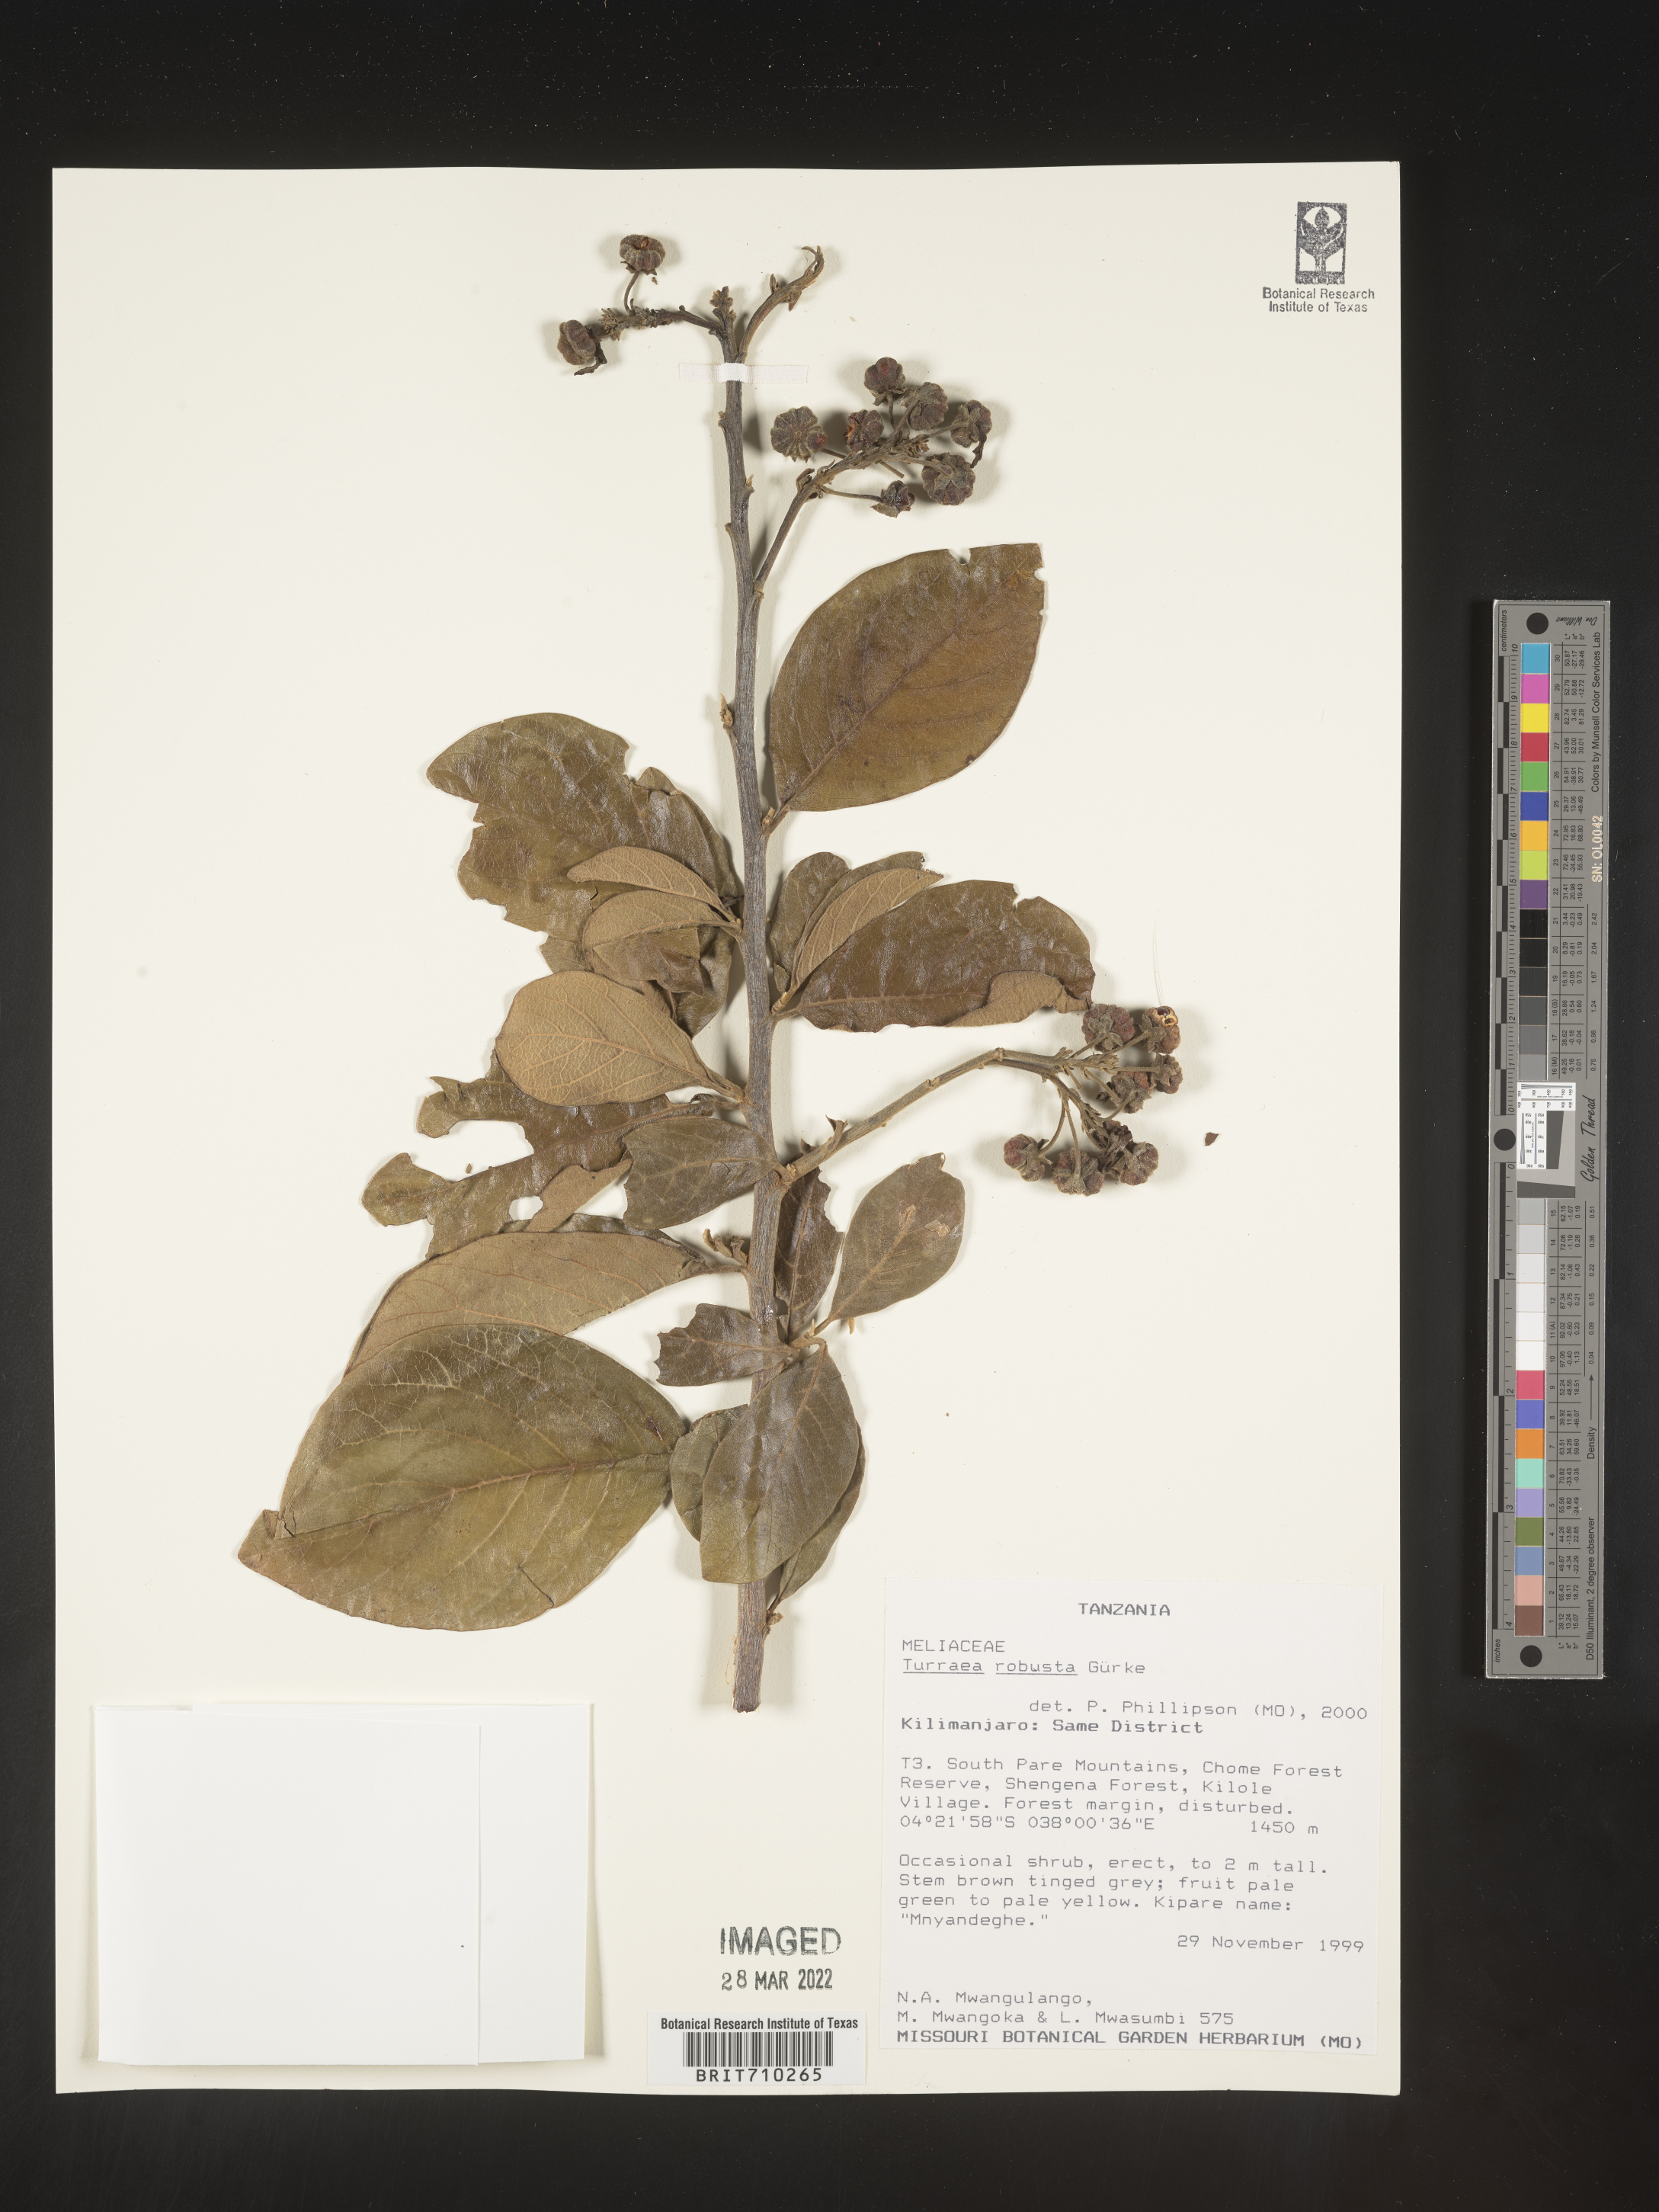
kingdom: Plantae
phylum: Tracheophyta
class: Magnoliopsida
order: Sapindales
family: Meliaceae
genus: Turraea
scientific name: Turraea
